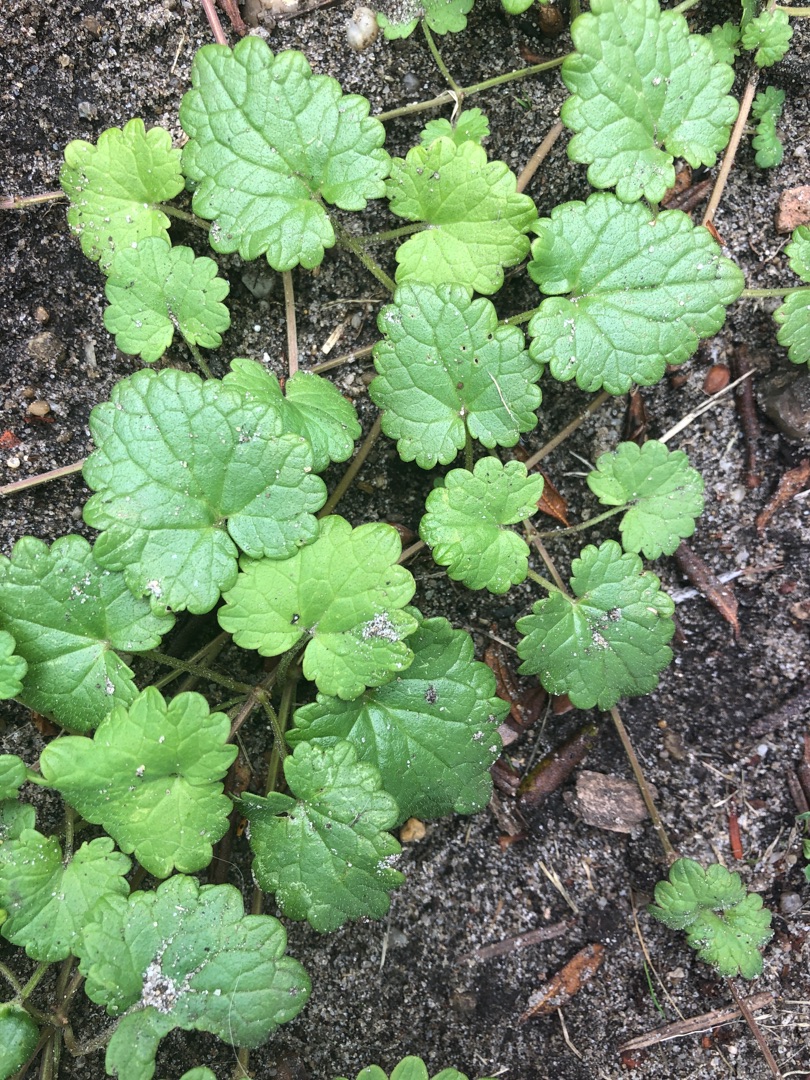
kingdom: Plantae
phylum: Tracheophyta
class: Magnoliopsida
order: Lamiales
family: Lamiaceae
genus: Glechoma
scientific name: Glechoma hederacea
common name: Korsknap
